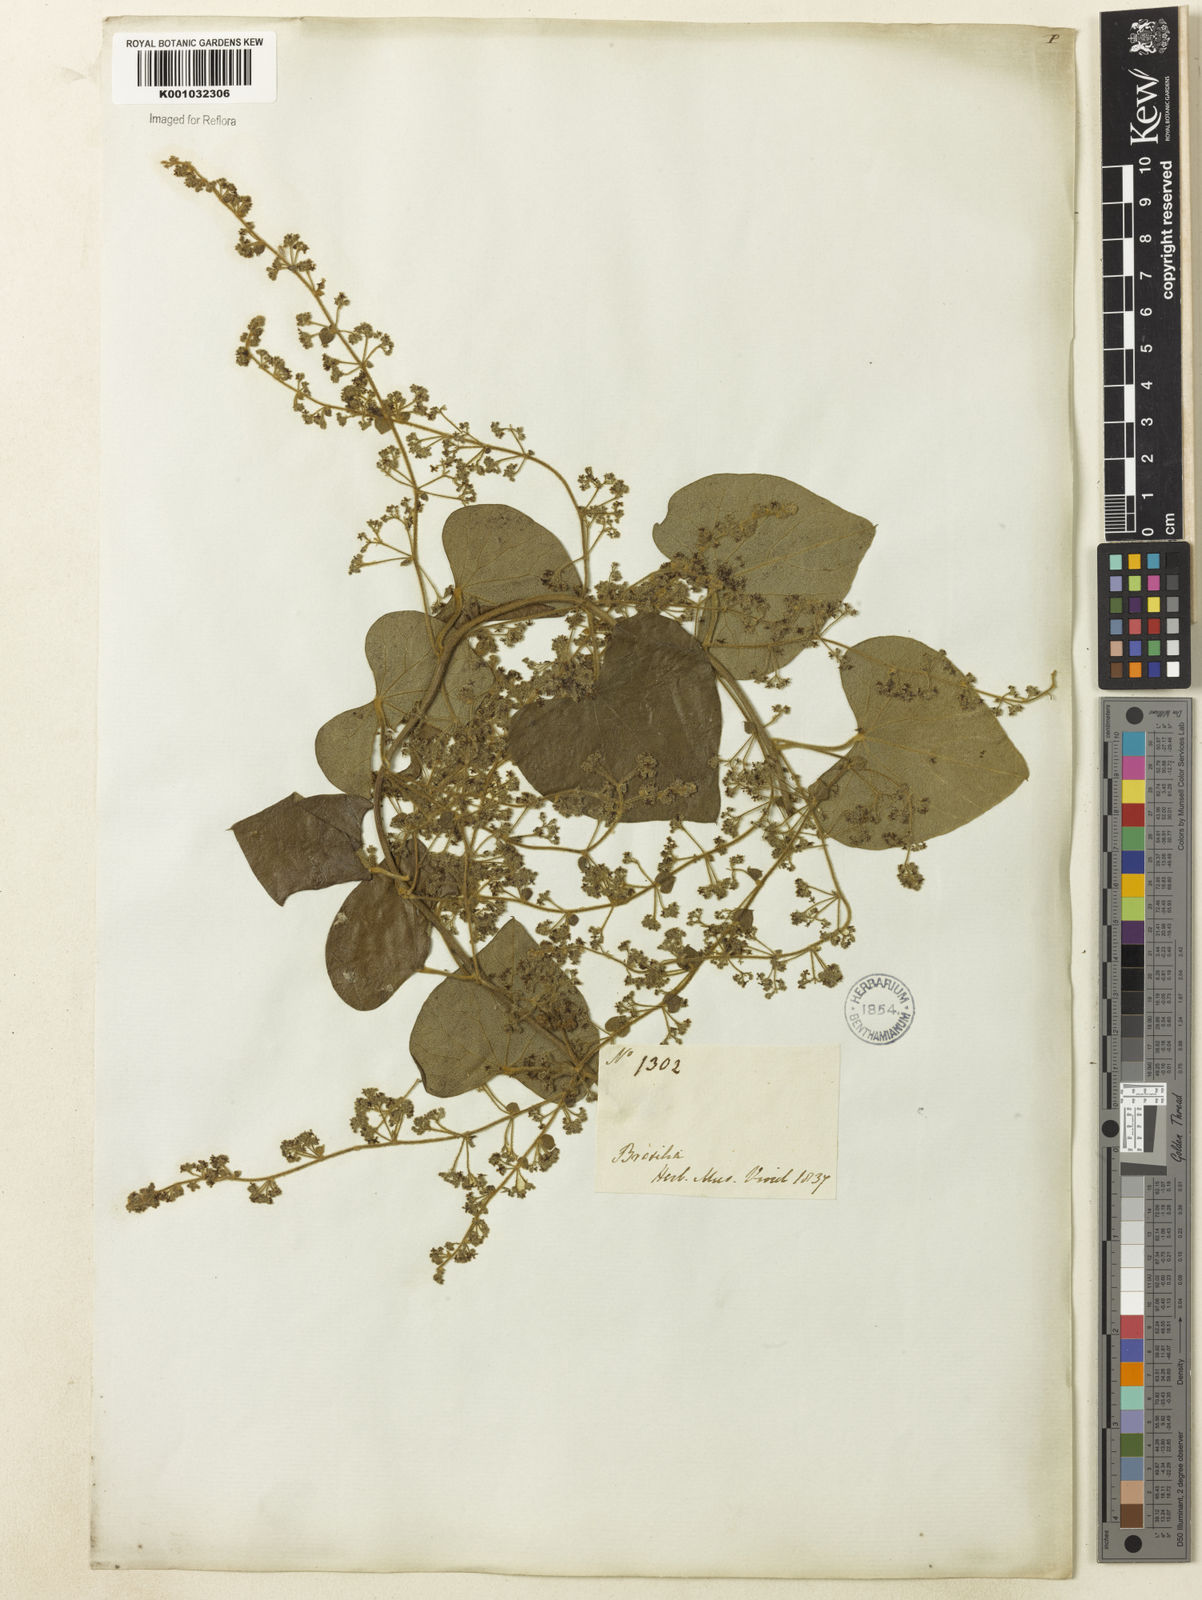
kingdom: Plantae
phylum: Tracheophyta
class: Magnoliopsida
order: Ranunculales
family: Menispermaceae
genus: Cissampelos
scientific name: Cissampelos pareira
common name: Velvetleaf
